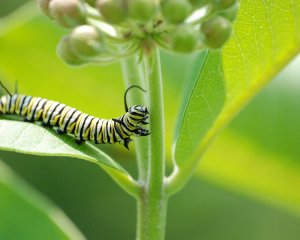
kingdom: Animalia
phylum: Arthropoda
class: Insecta
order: Lepidoptera
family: Nymphalidae
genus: Danaus
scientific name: Danaus plexippus
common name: Monarch
